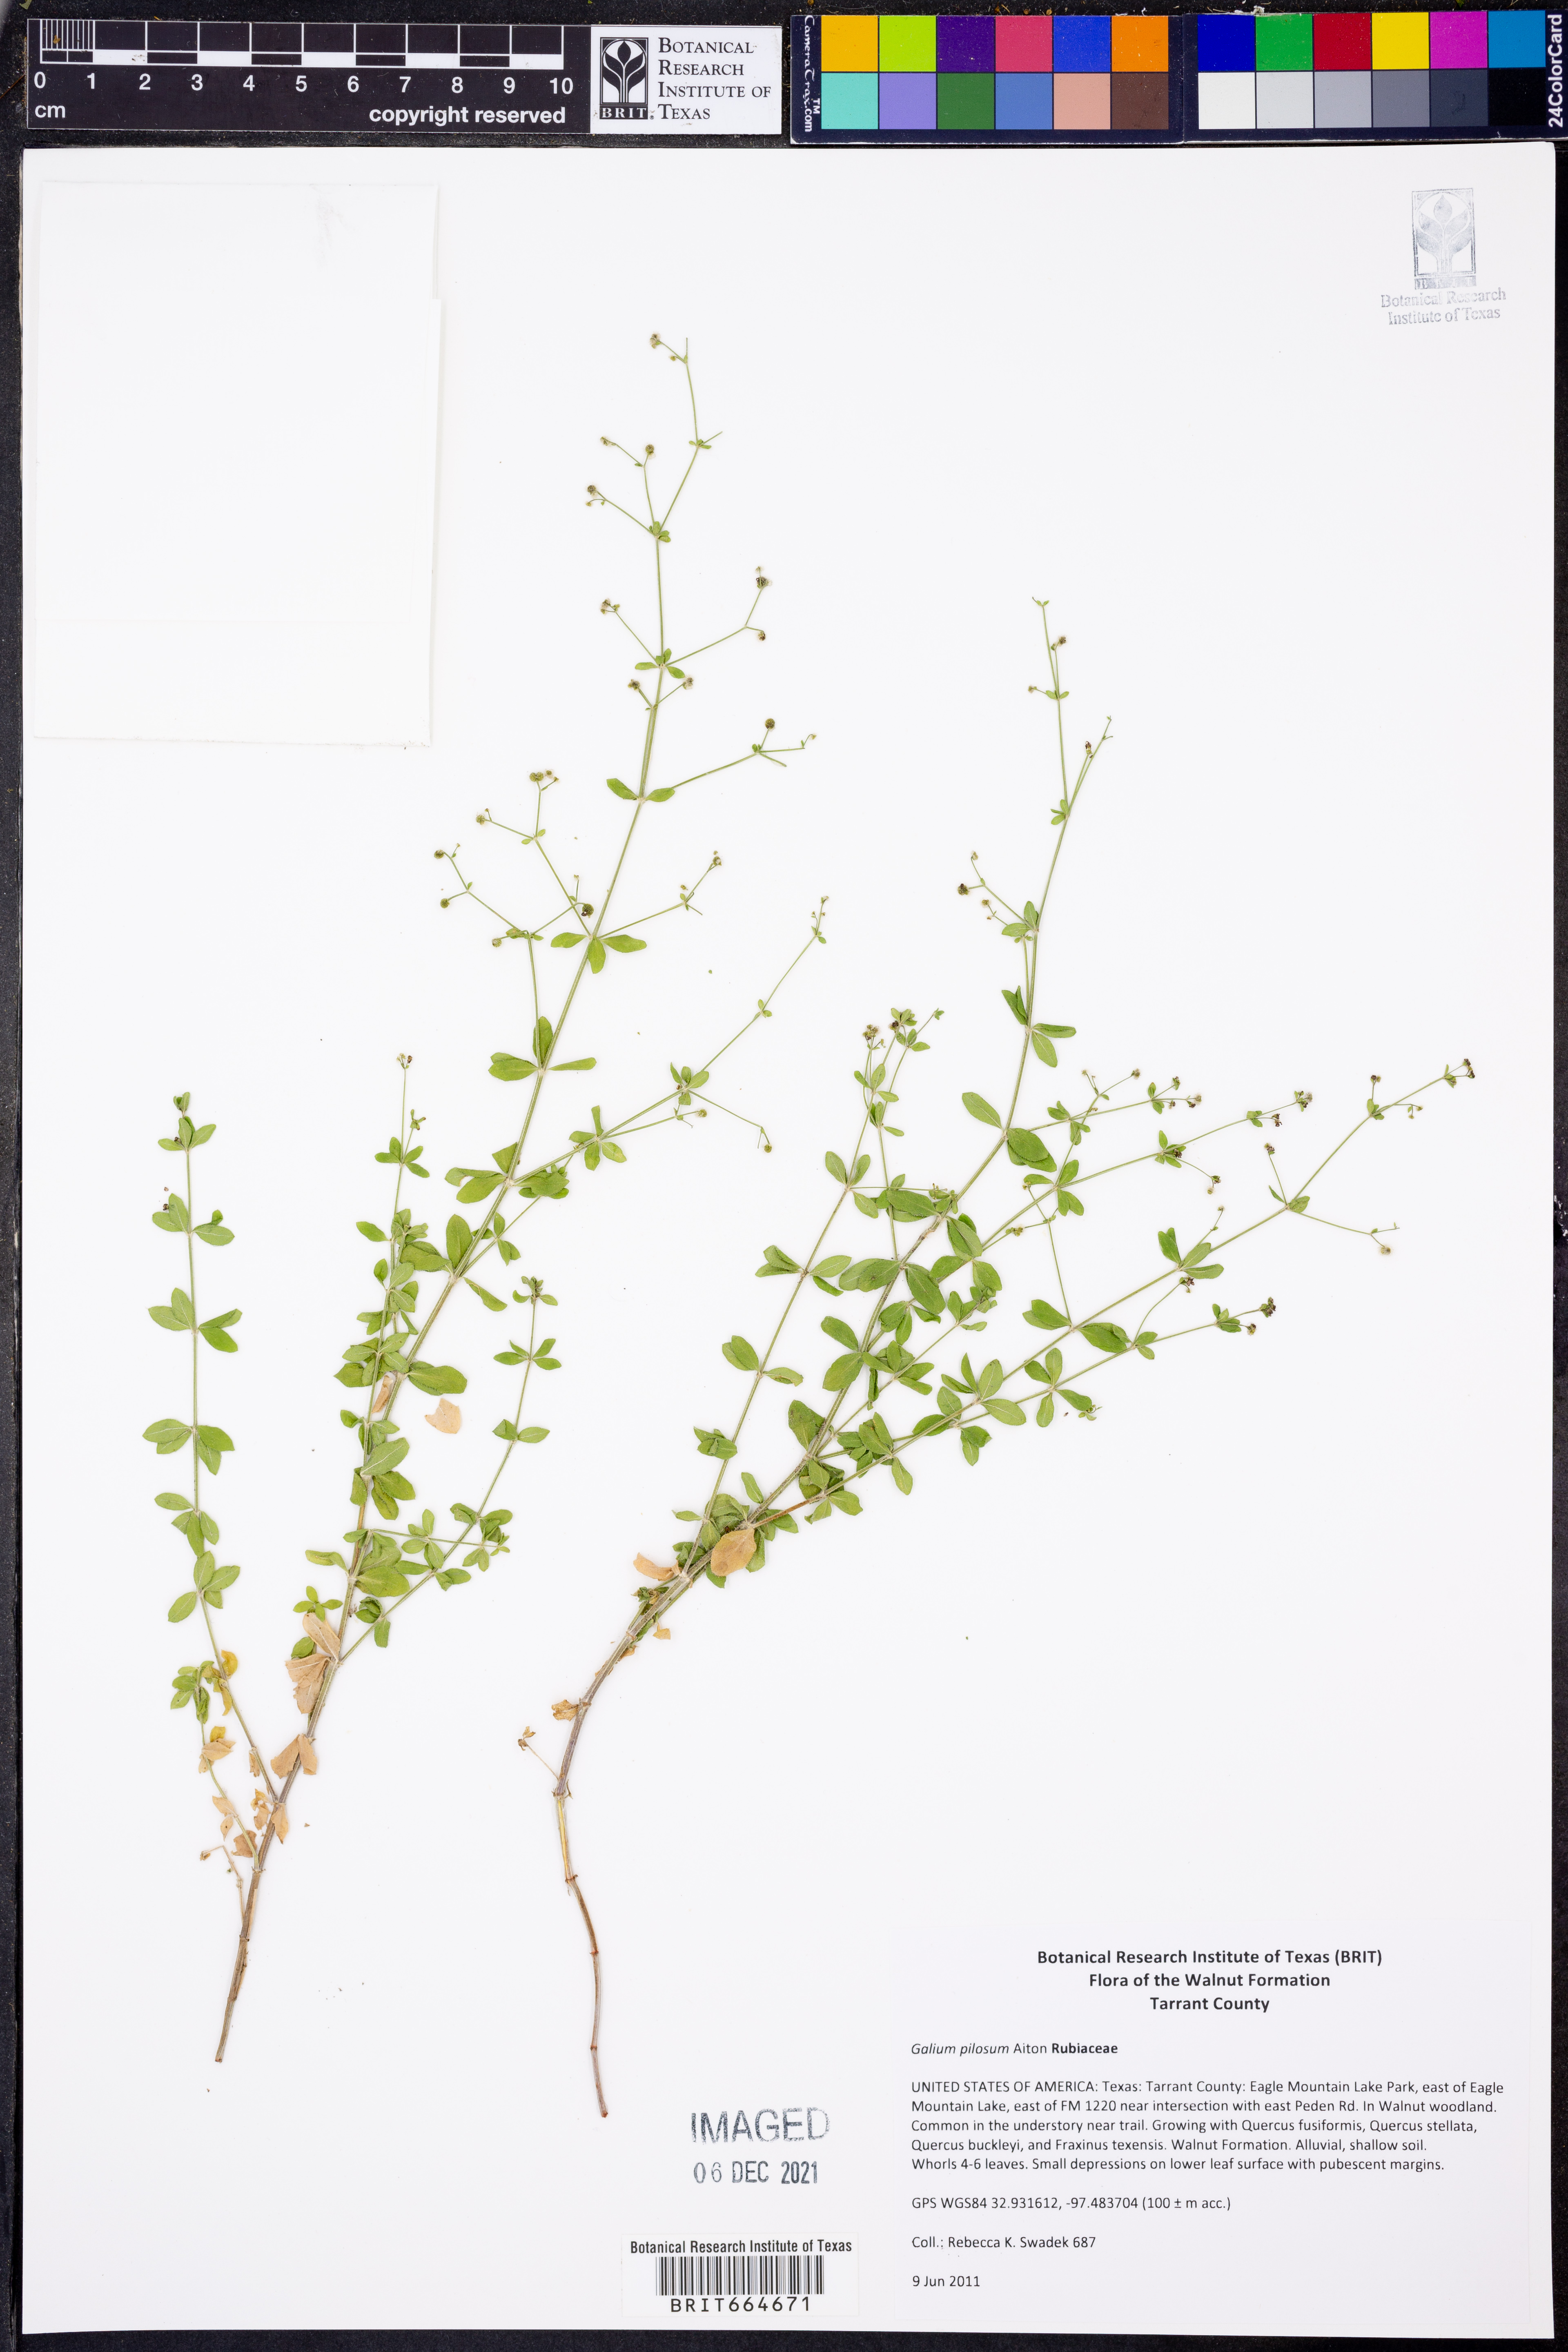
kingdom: Plantae
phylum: Tracheophyta
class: Magnoliopsida
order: Gentianales
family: Rubiaceae
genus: Galium
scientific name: Galium pilosum
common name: Hairy bedstraw
